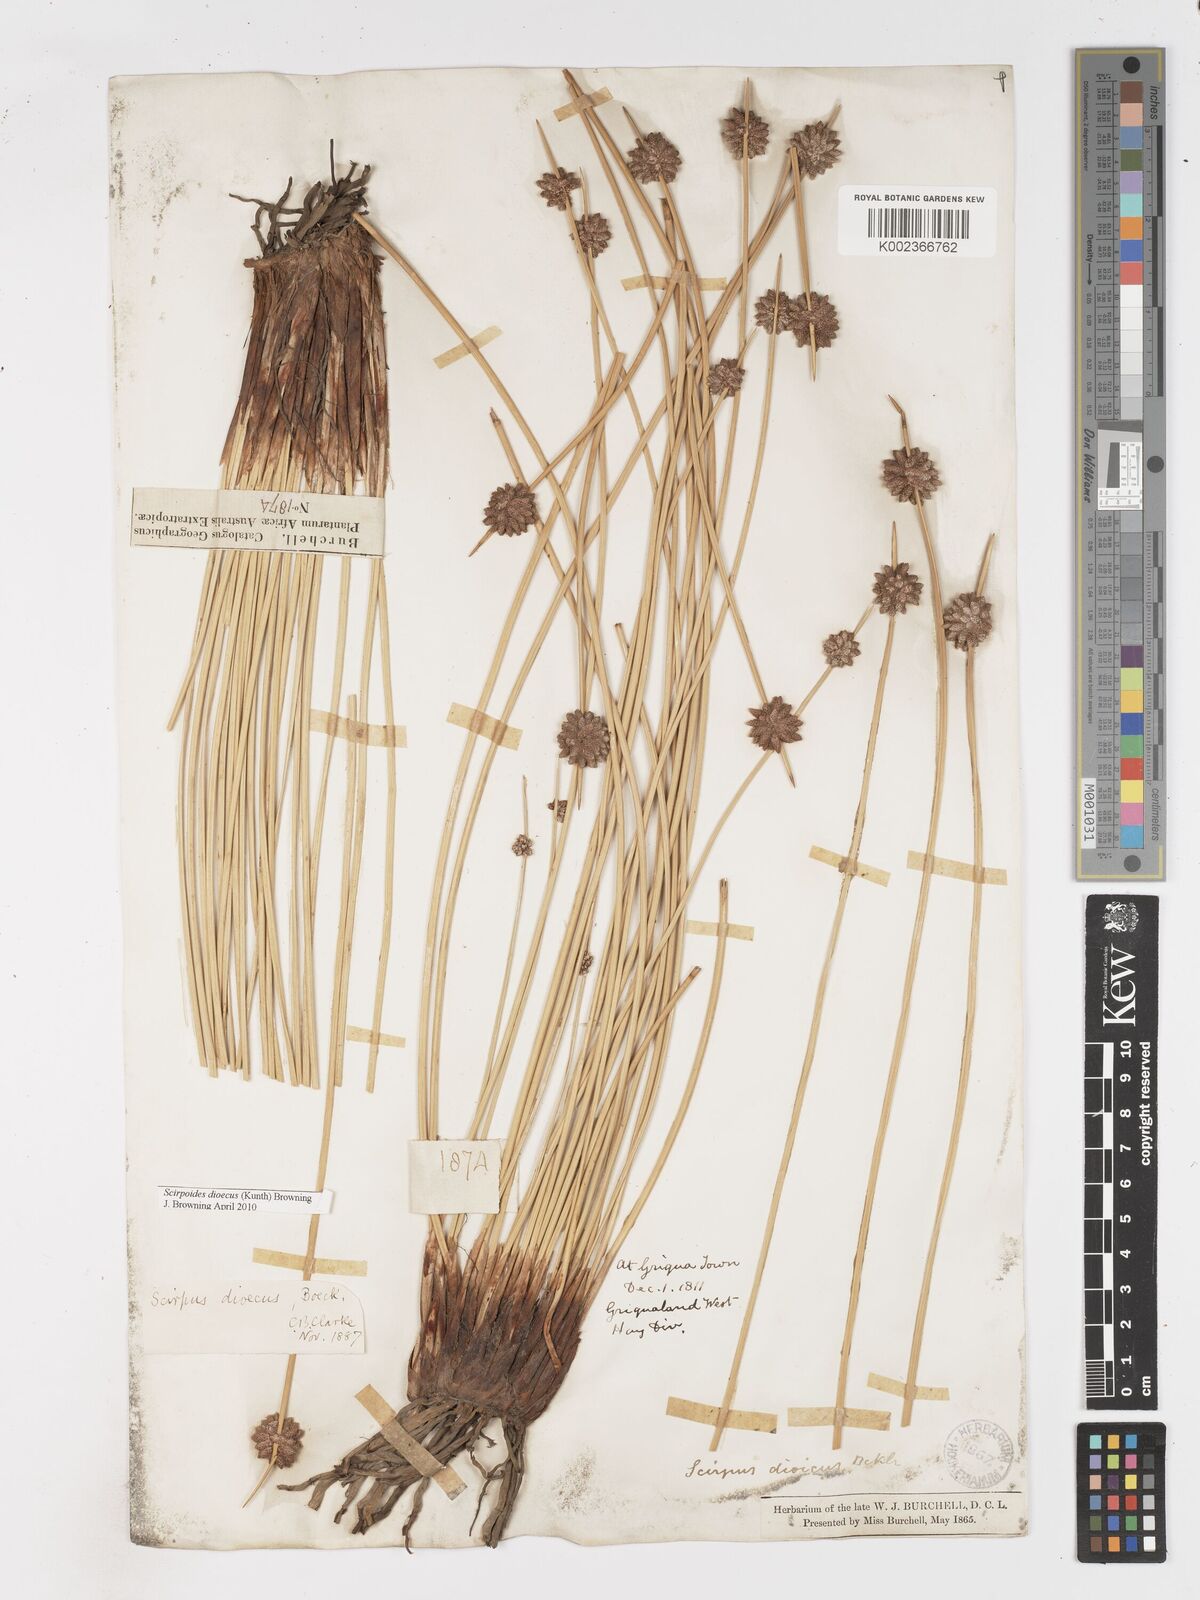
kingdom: Plantae
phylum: Tracheophyta
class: Liliopsida
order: Poales
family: Cyperaceae
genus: Afroscirpoides
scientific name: Afroscirpoides dioeca
